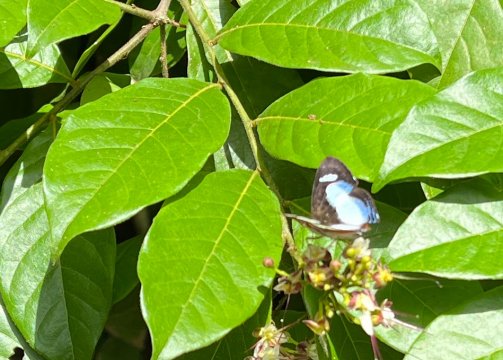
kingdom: Animalia
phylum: Arthropoda
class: Insecta
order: Lepidoptera
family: Riodinidae
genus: Thisbe
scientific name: Thisbe irenea
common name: Irenia Metalmark
